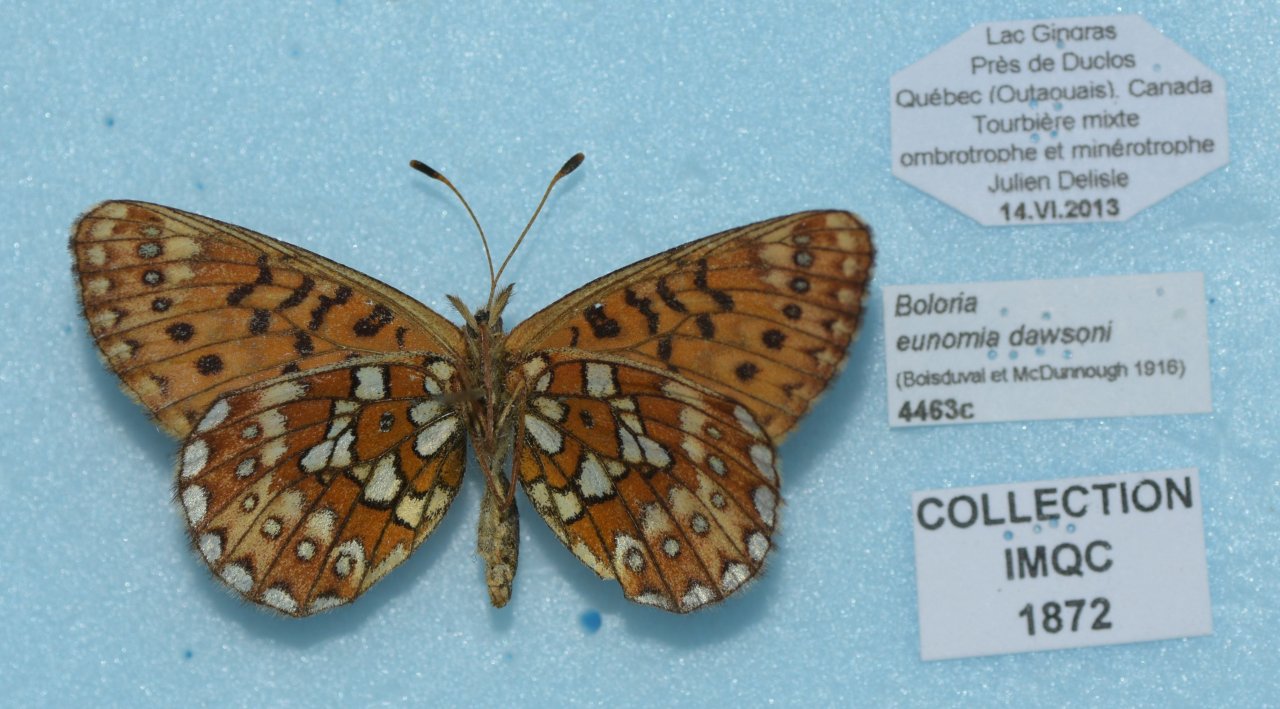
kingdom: Animalia
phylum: Arthropoda
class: Insecta
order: Lepidoptera
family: Nymphalidae
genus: Boloria
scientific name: Boloria eunomia
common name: Bog Fritillary
